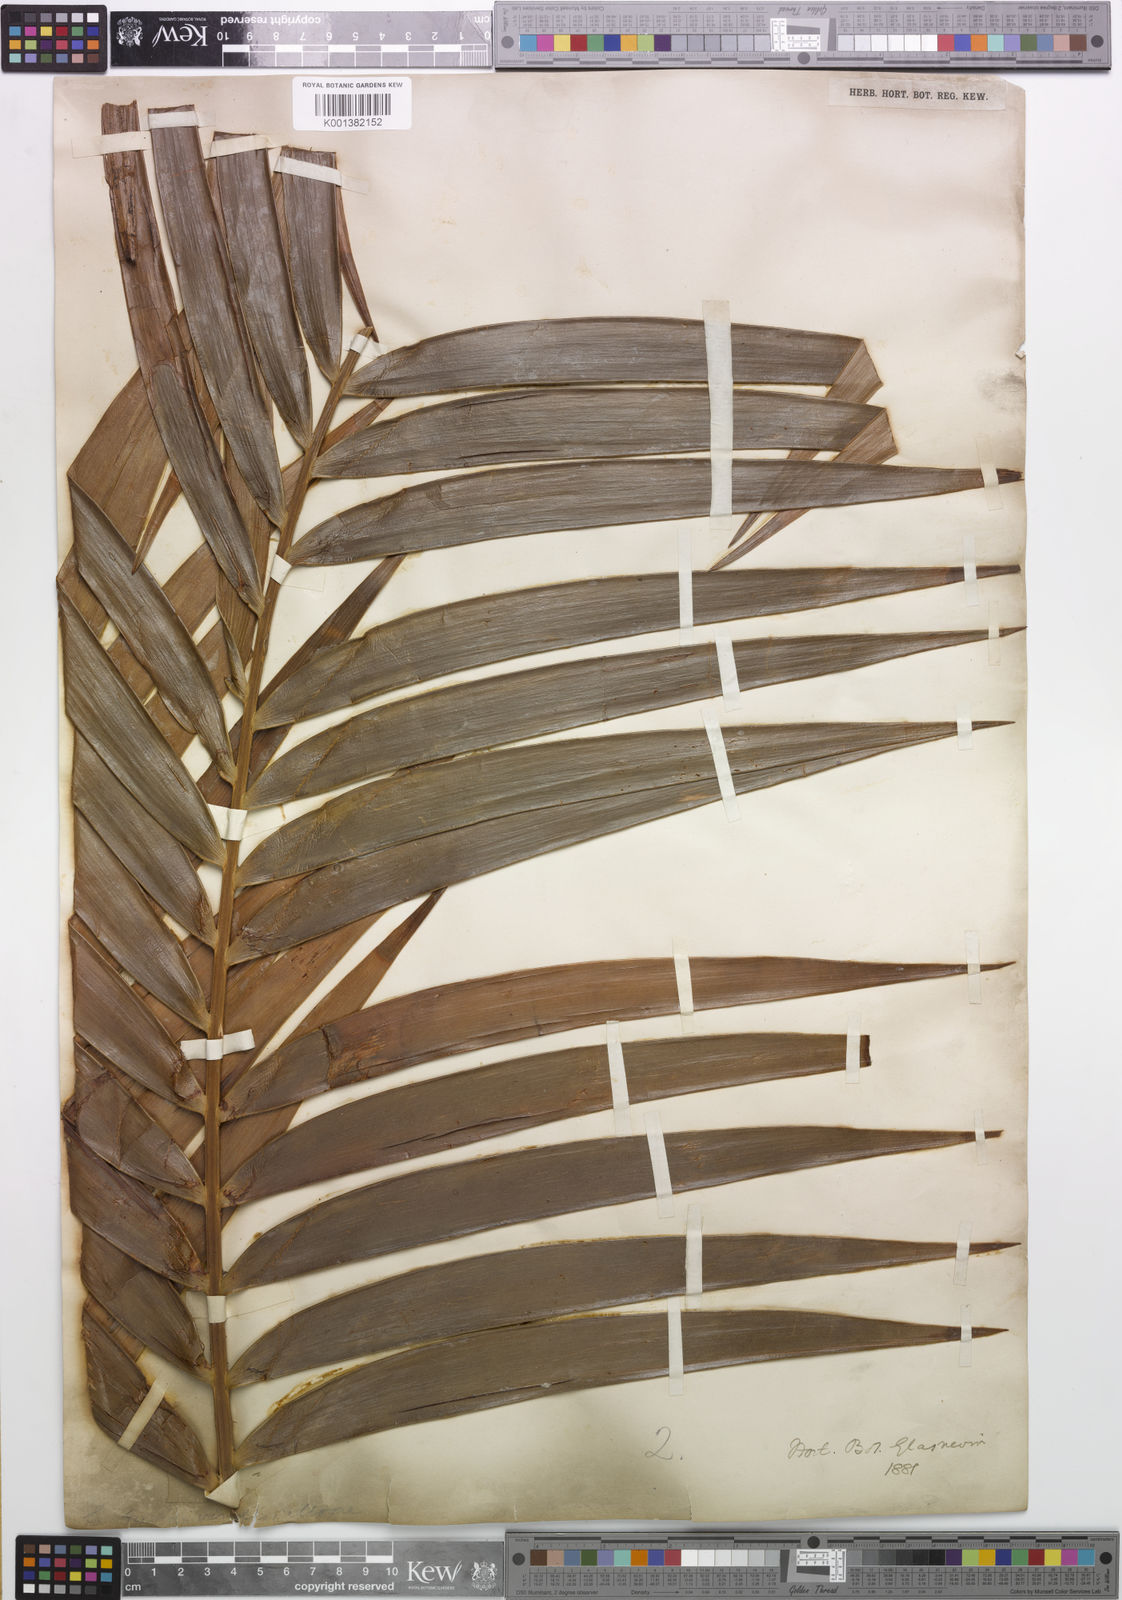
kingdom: Plantae
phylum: Tracheophyta
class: Cycadopsida
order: Cycadales
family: Zamiaceae
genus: Ceratozamia
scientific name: Ceratozamia fuscoviridis
